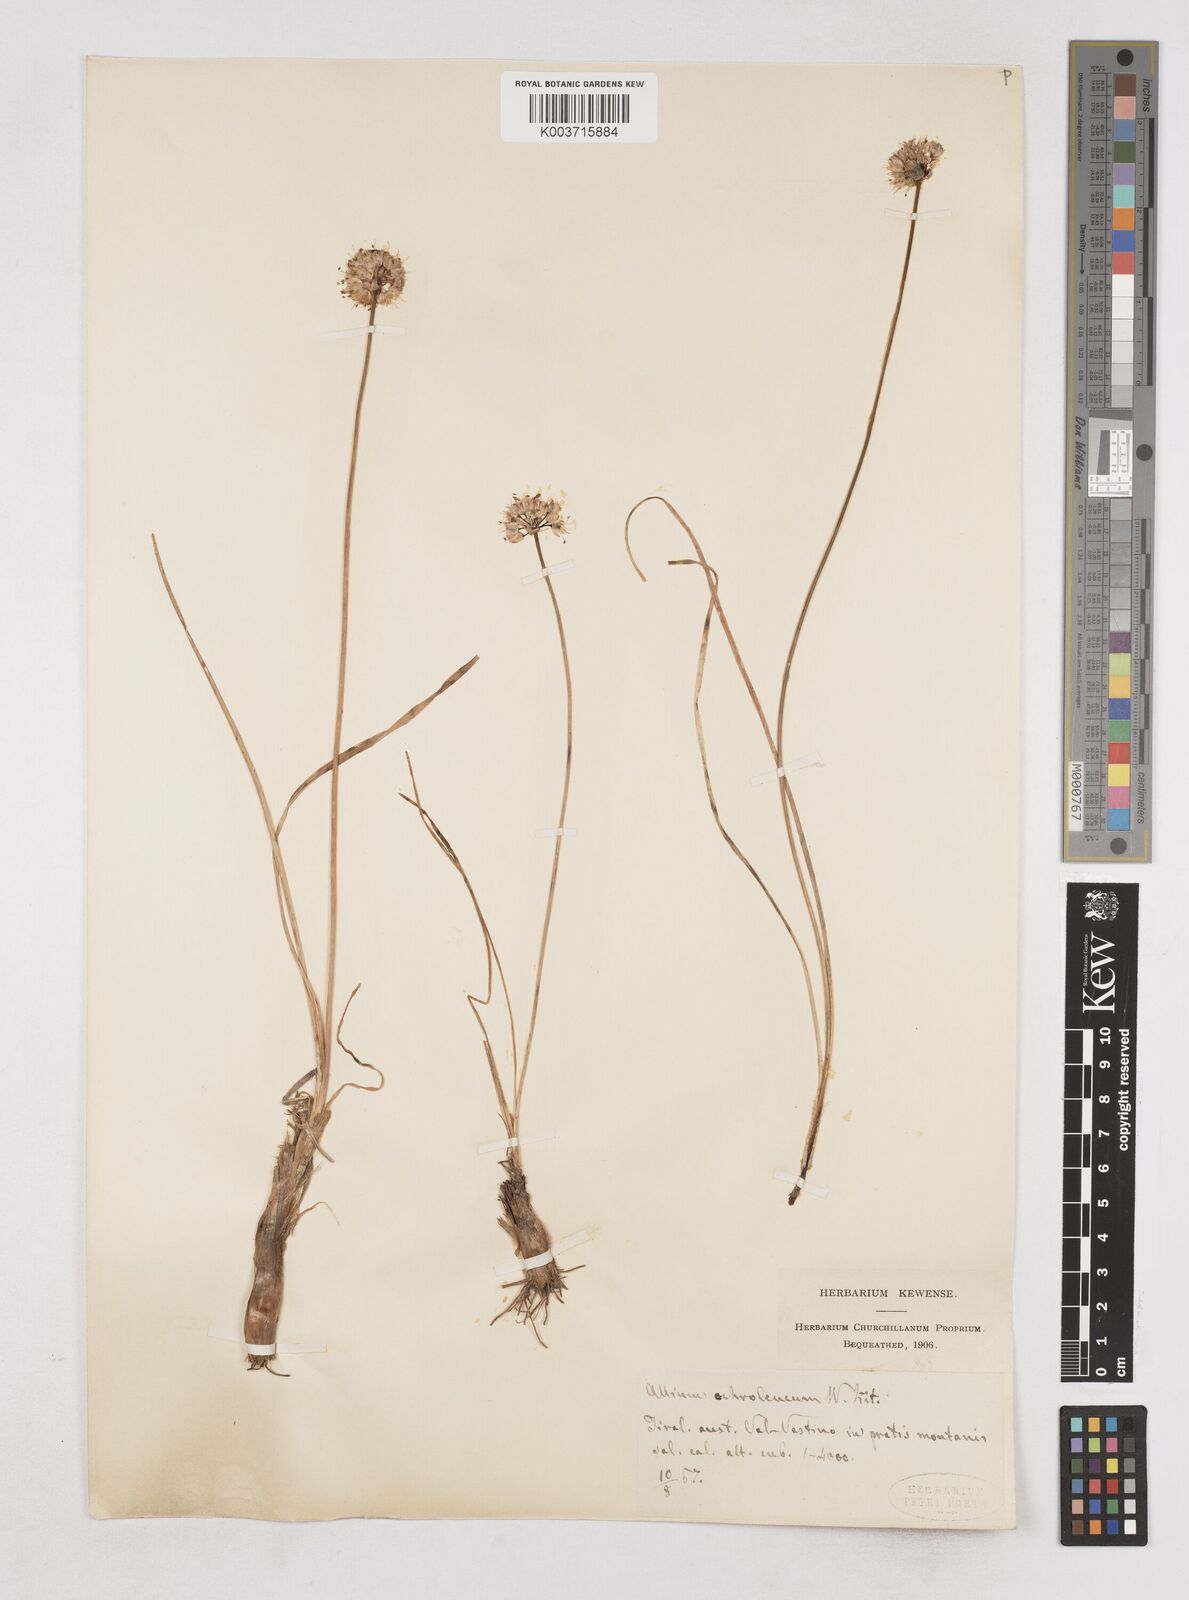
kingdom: Plantae
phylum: Tracheophyta
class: Liliopsida
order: Asparagales
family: Amaryllidaceae
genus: Allium
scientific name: Allium ericetorum
